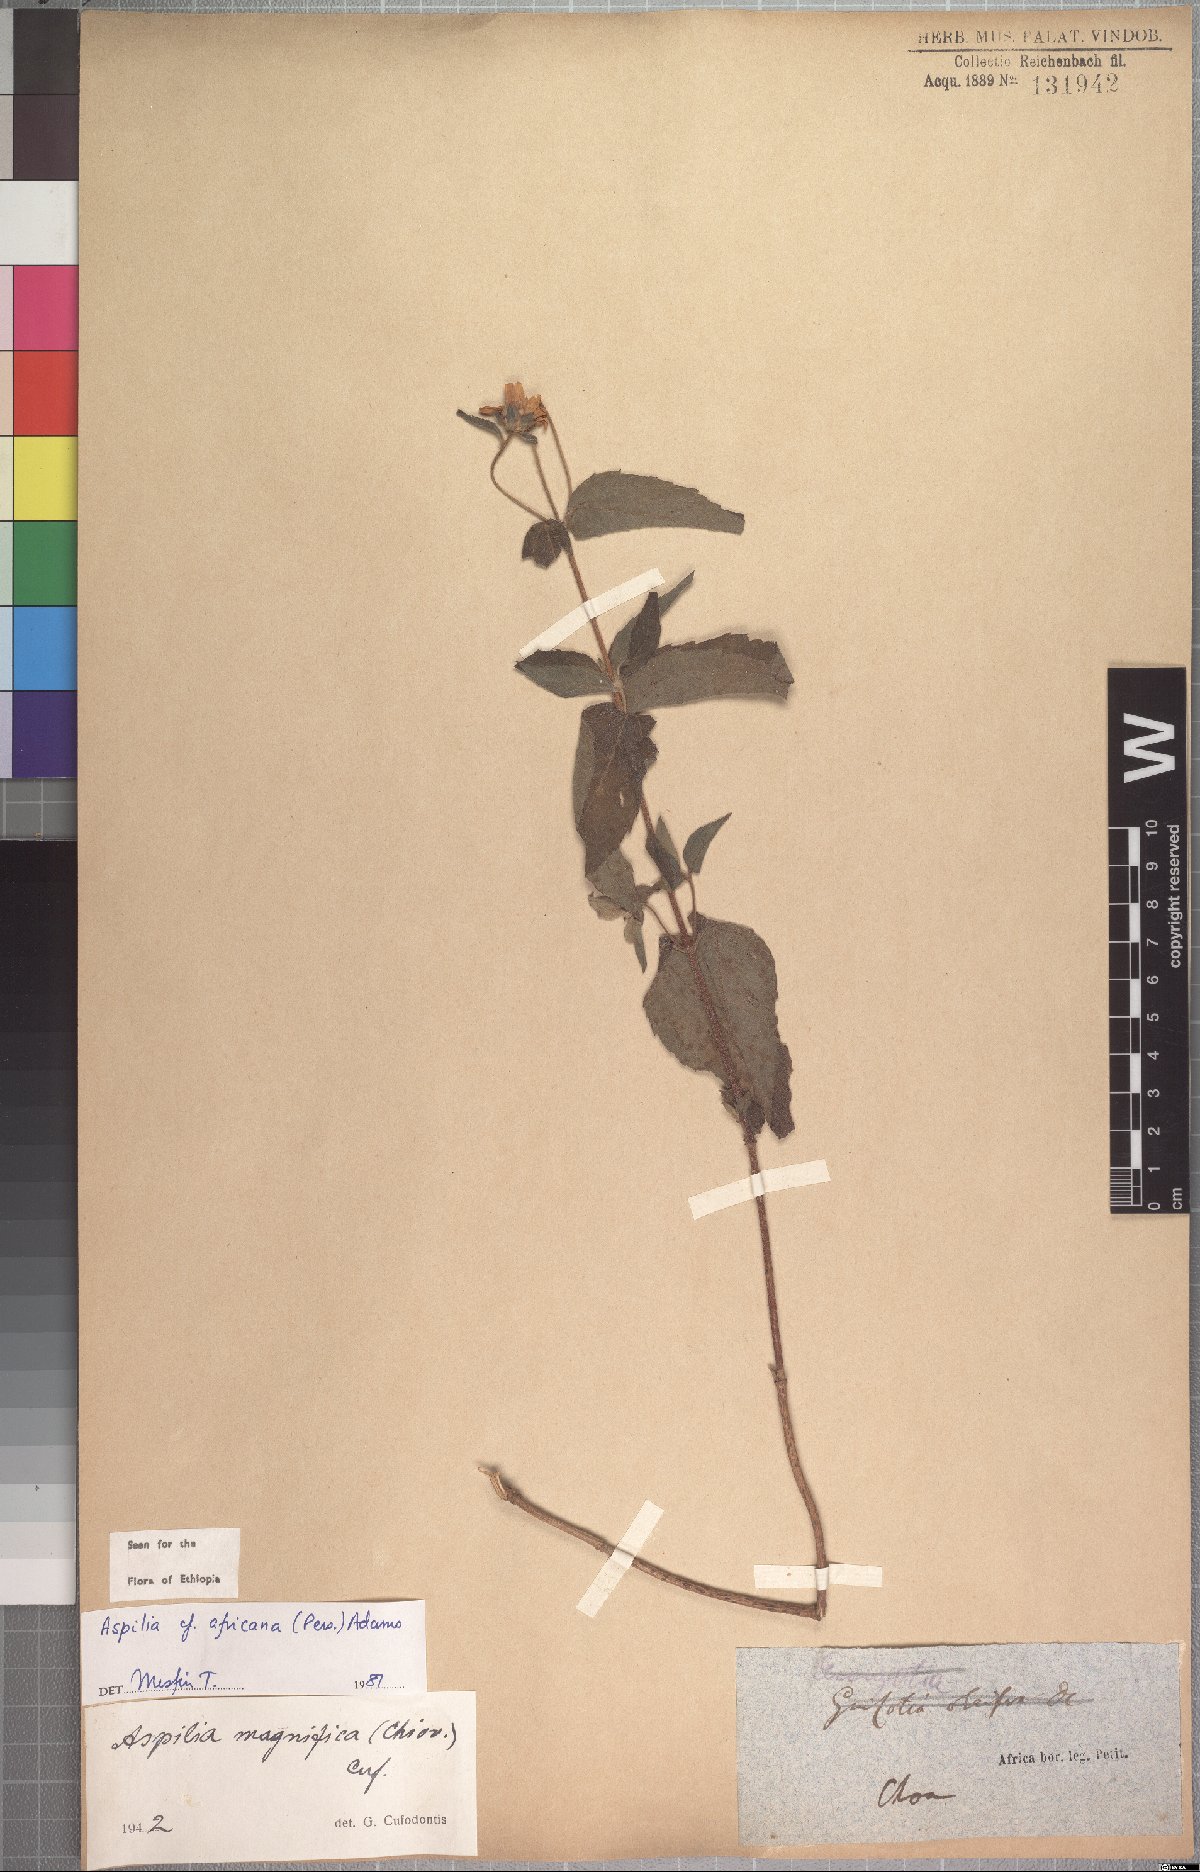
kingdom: Plantae
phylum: Tracheophyta
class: Magnoliopsida
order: Asterales
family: Asteraceae
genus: Aspilia
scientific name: Aspilia africana
